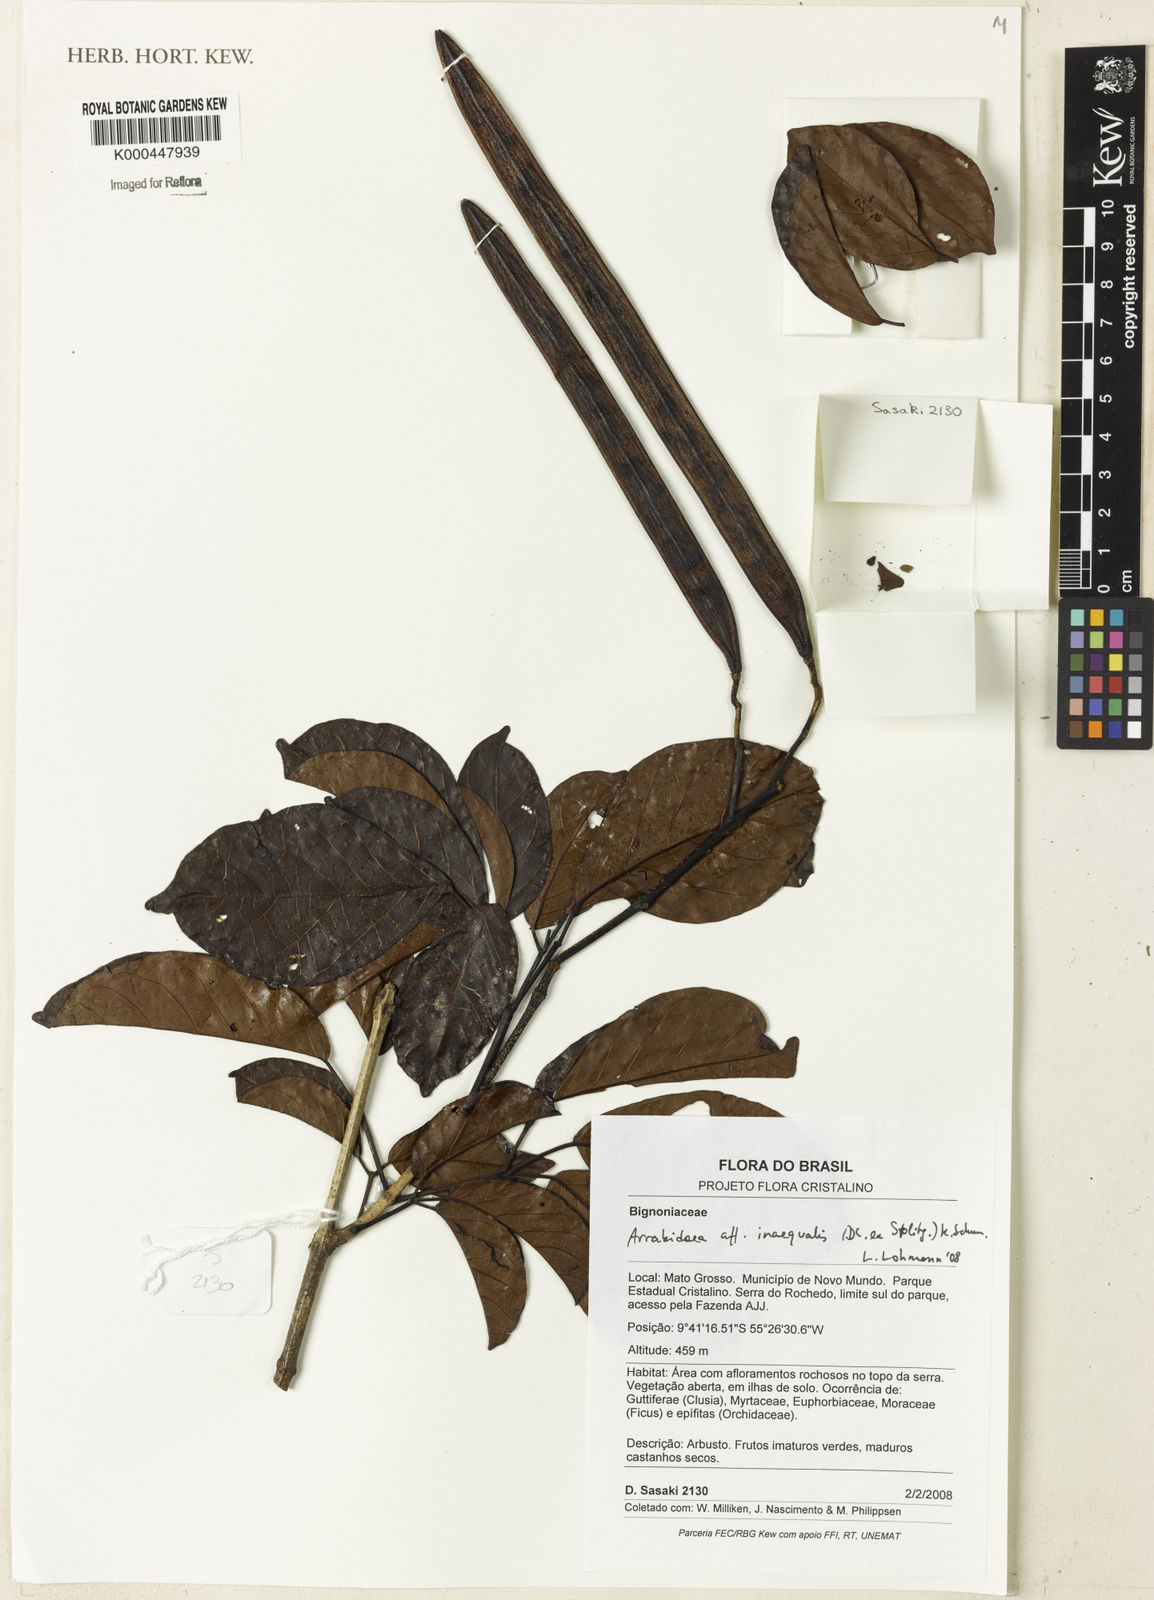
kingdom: Plantae
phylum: Tracheophyta
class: Magnoliopsida
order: Rosales
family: Rhamnaceae
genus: Arrabidaea
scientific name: Arrabidaea
